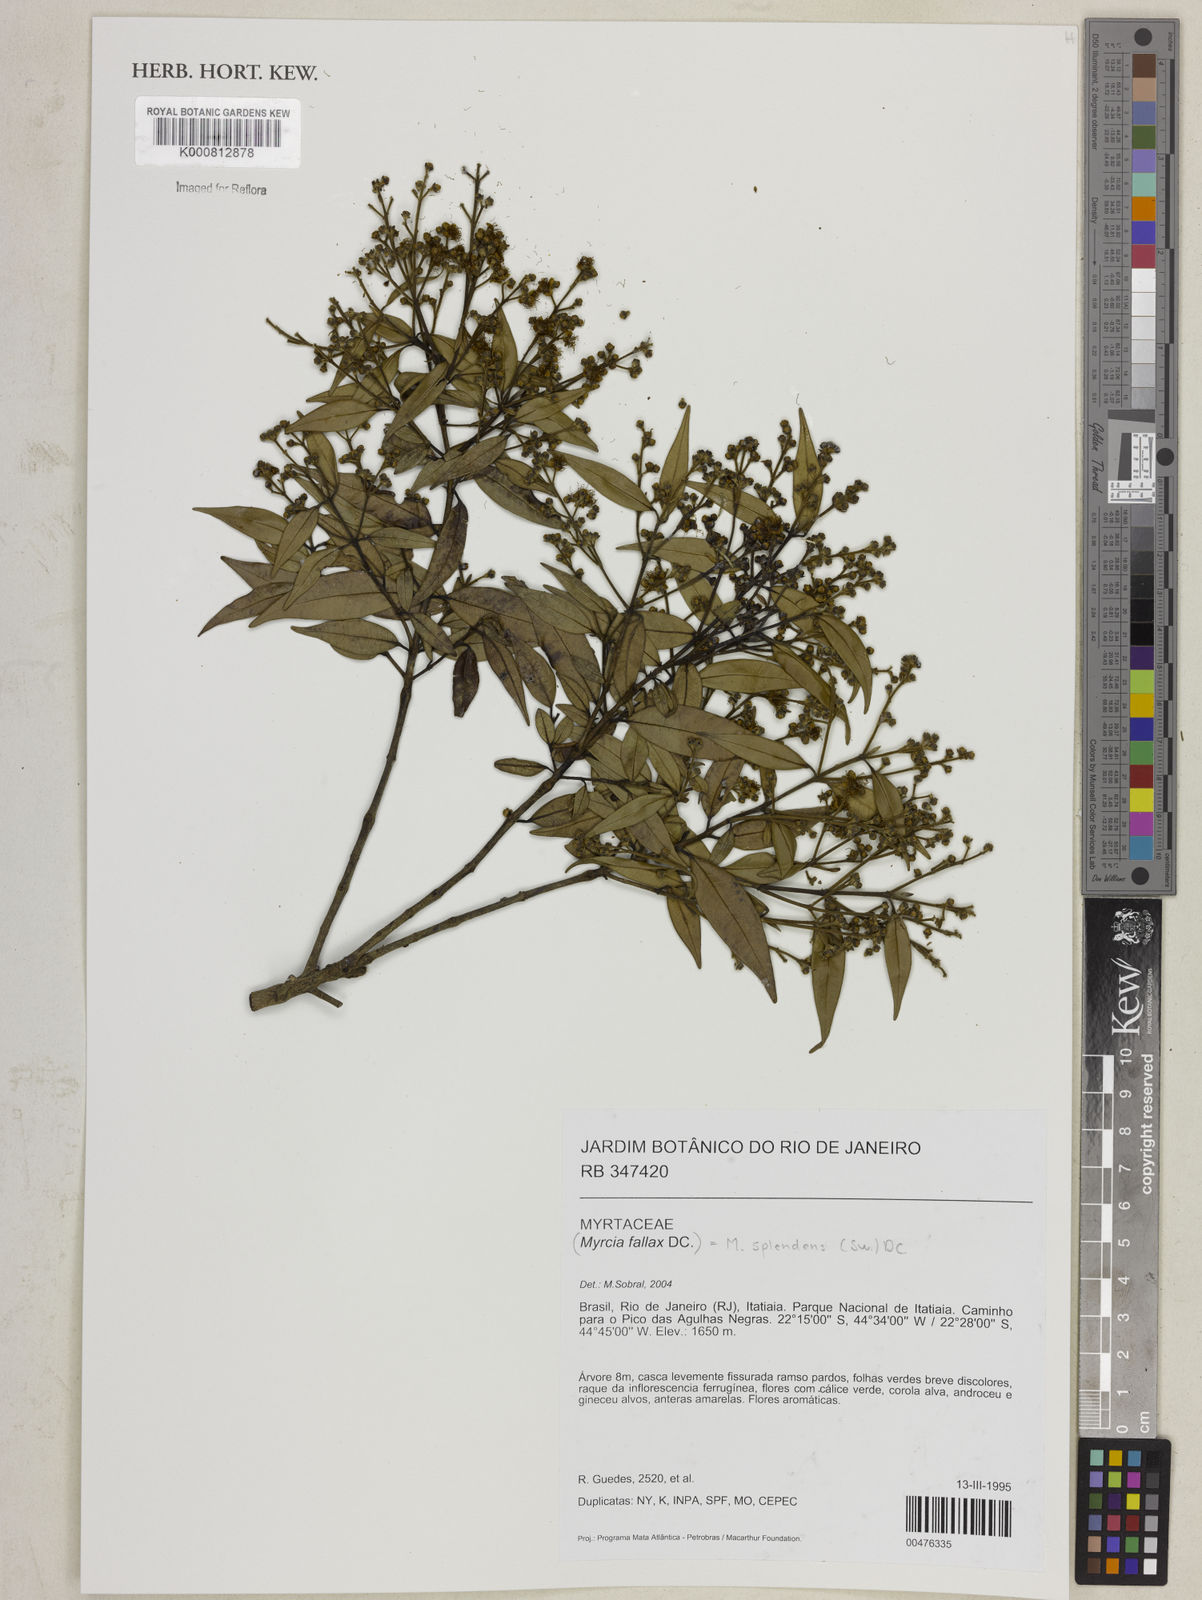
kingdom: Plantae
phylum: Tracheophyta
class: Magnoliopsida
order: Myrtales
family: Myrtaceae
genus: Myrcia
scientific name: Myrcia splendens
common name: Surinam cherry
